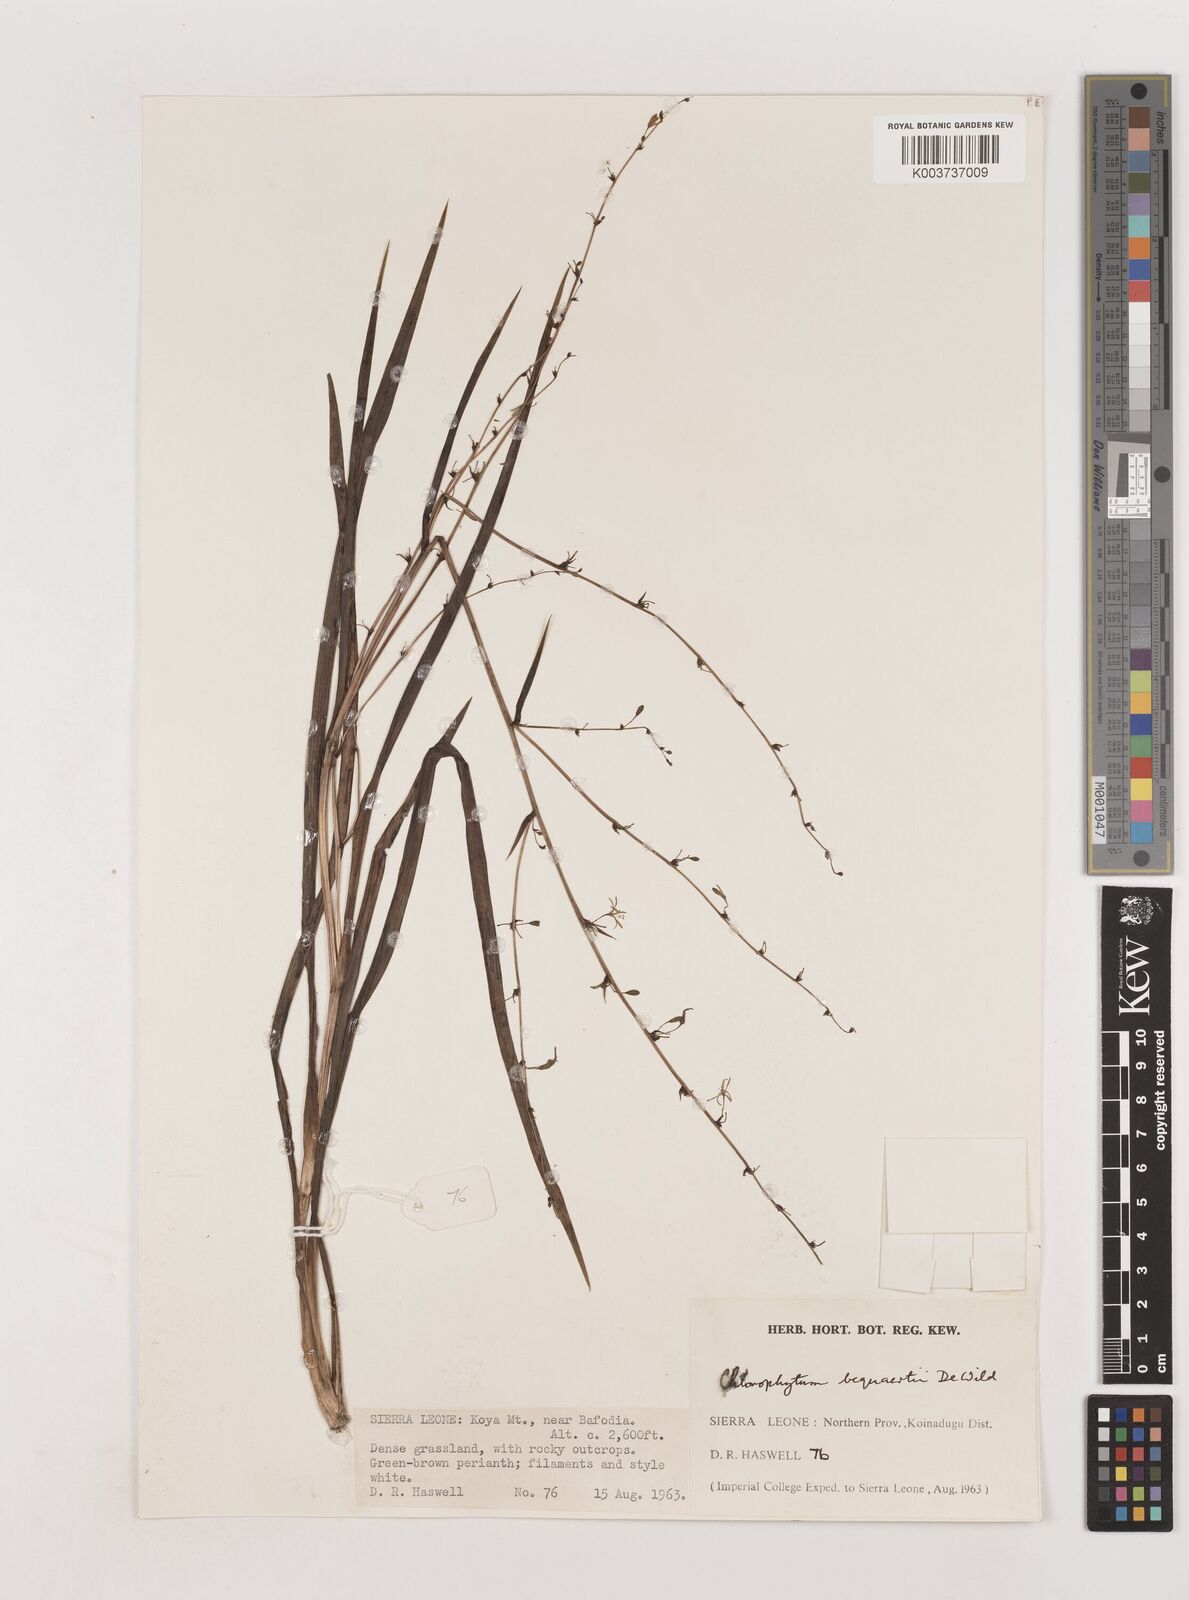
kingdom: Plantae
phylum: Tracheophyta
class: Liliopsida
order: Asparagales
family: Asparagaceae
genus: Chlorophytum
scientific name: Chlorophytum gallabatense
